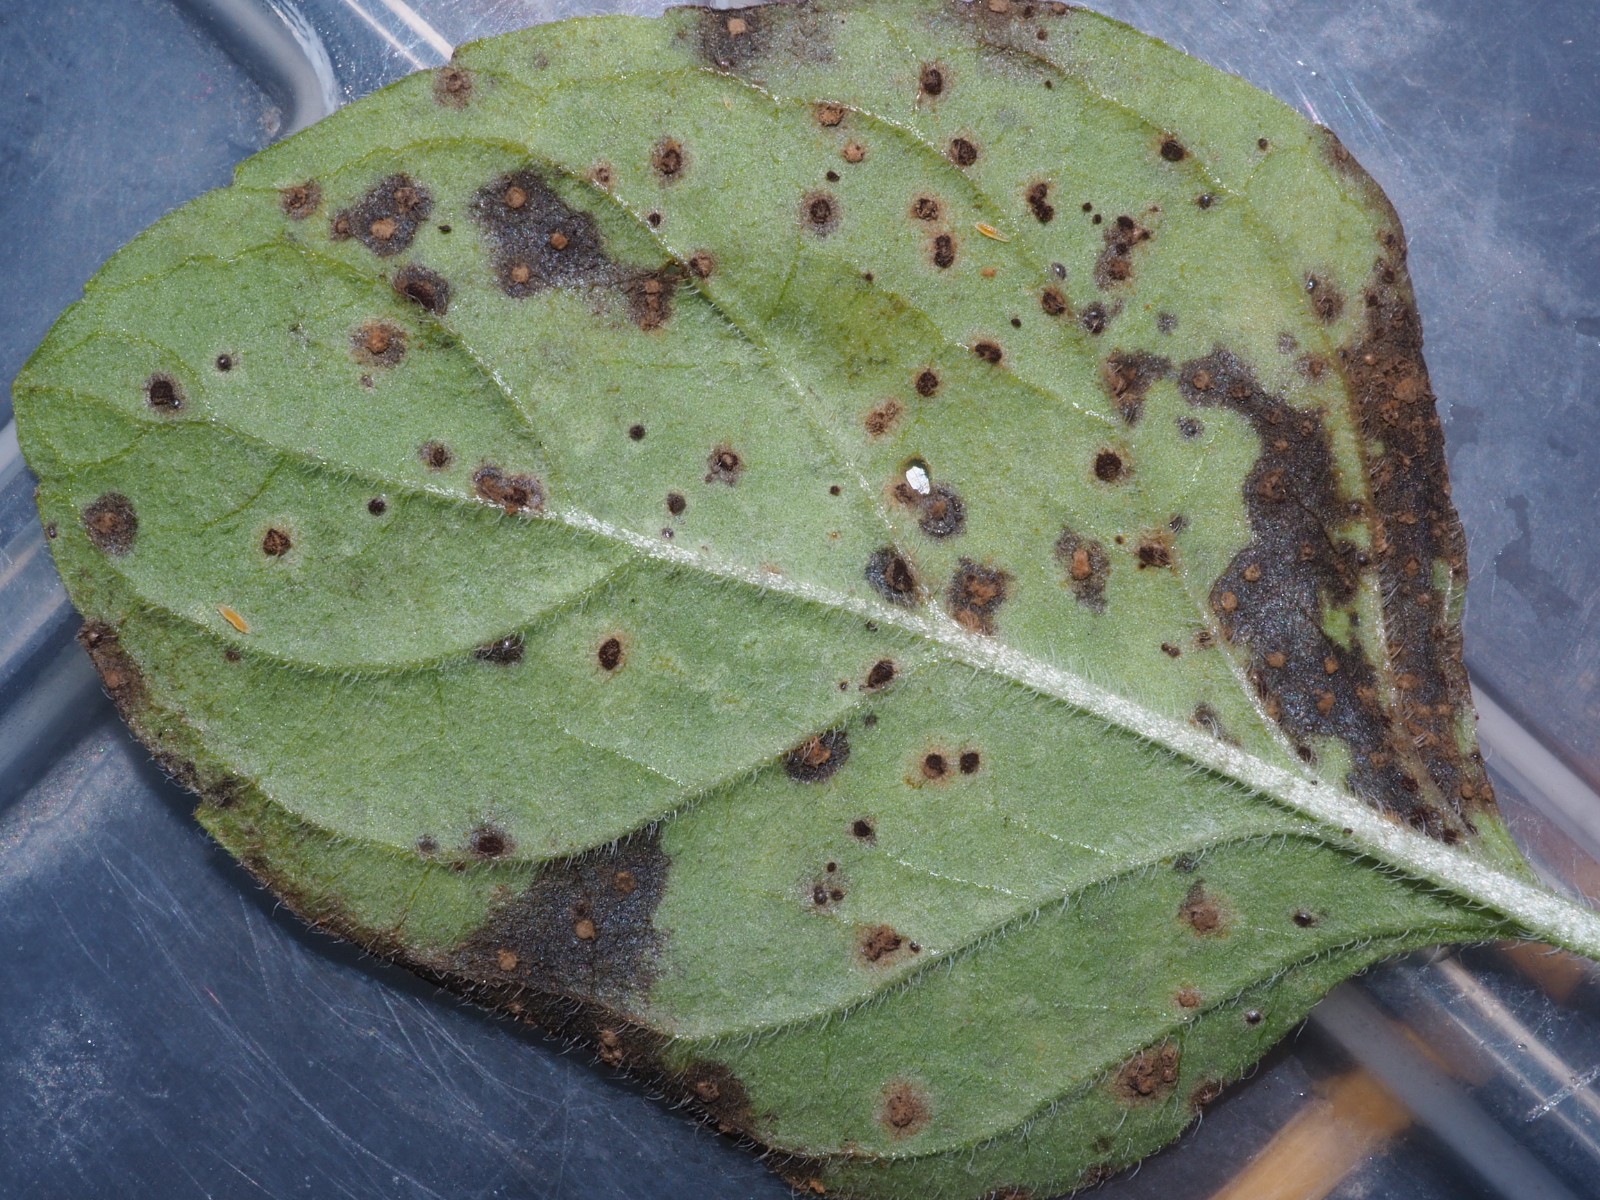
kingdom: Fungi
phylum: Basidiomycota
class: Pucciniomycetes
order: Pucciniales
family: Pucciniaceae
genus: Puccinia
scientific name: Puccinia menthae
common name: Mint rust
